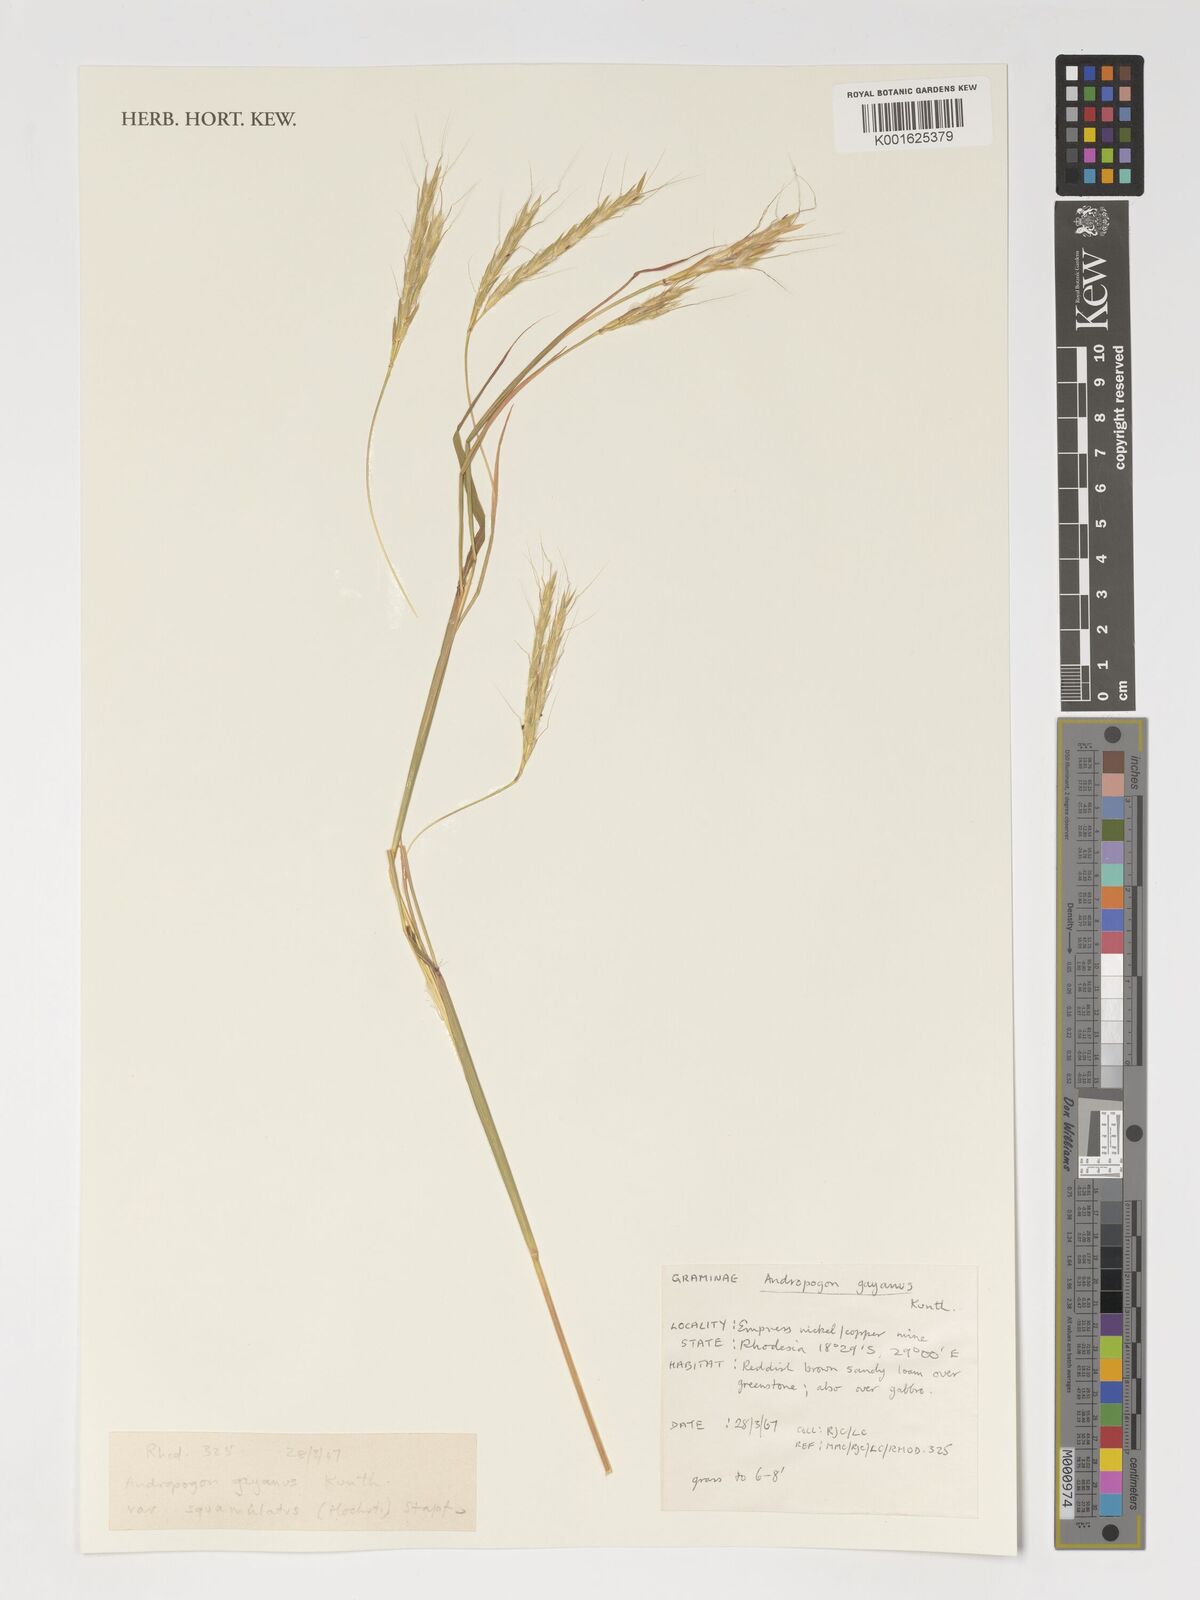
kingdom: Plantae
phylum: Tracheophyta
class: Liliopsida
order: Poales
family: Poaceae
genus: Andropogon
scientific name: Andropogon gayanus
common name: Tambuki grass
